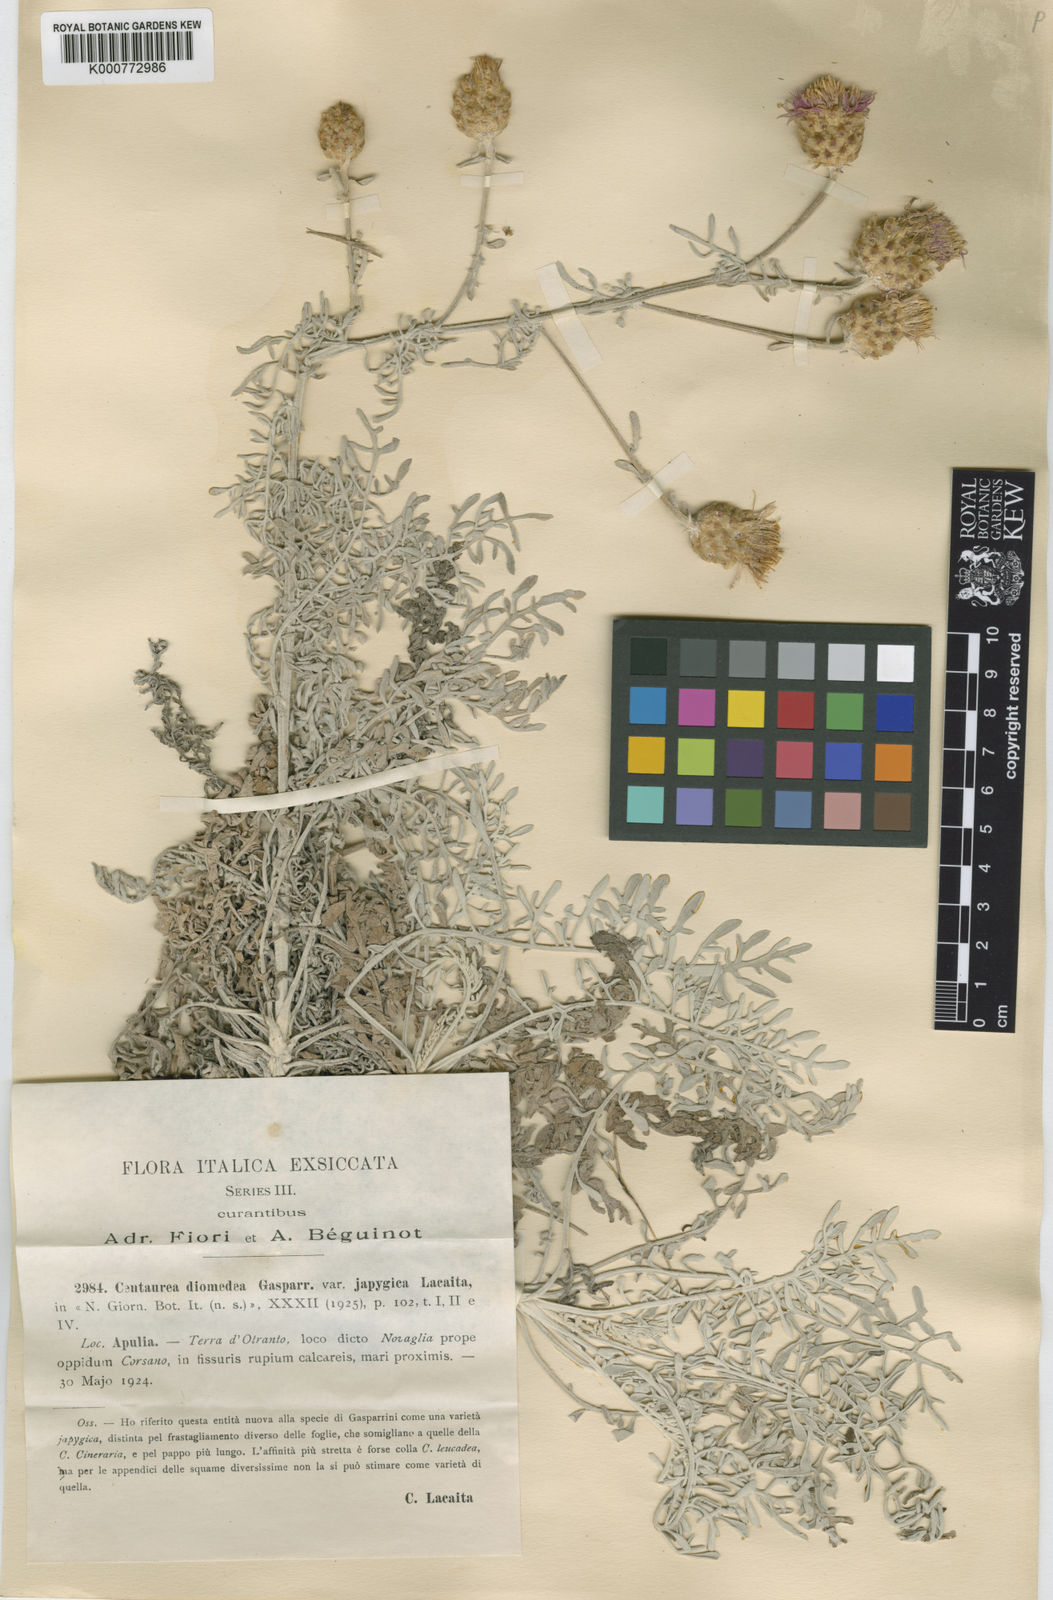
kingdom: Plantae
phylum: Tracheophyta
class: Magnoliopsida
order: Asterales
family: Asteraceae
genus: Centaurea
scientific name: Centaurea alba
